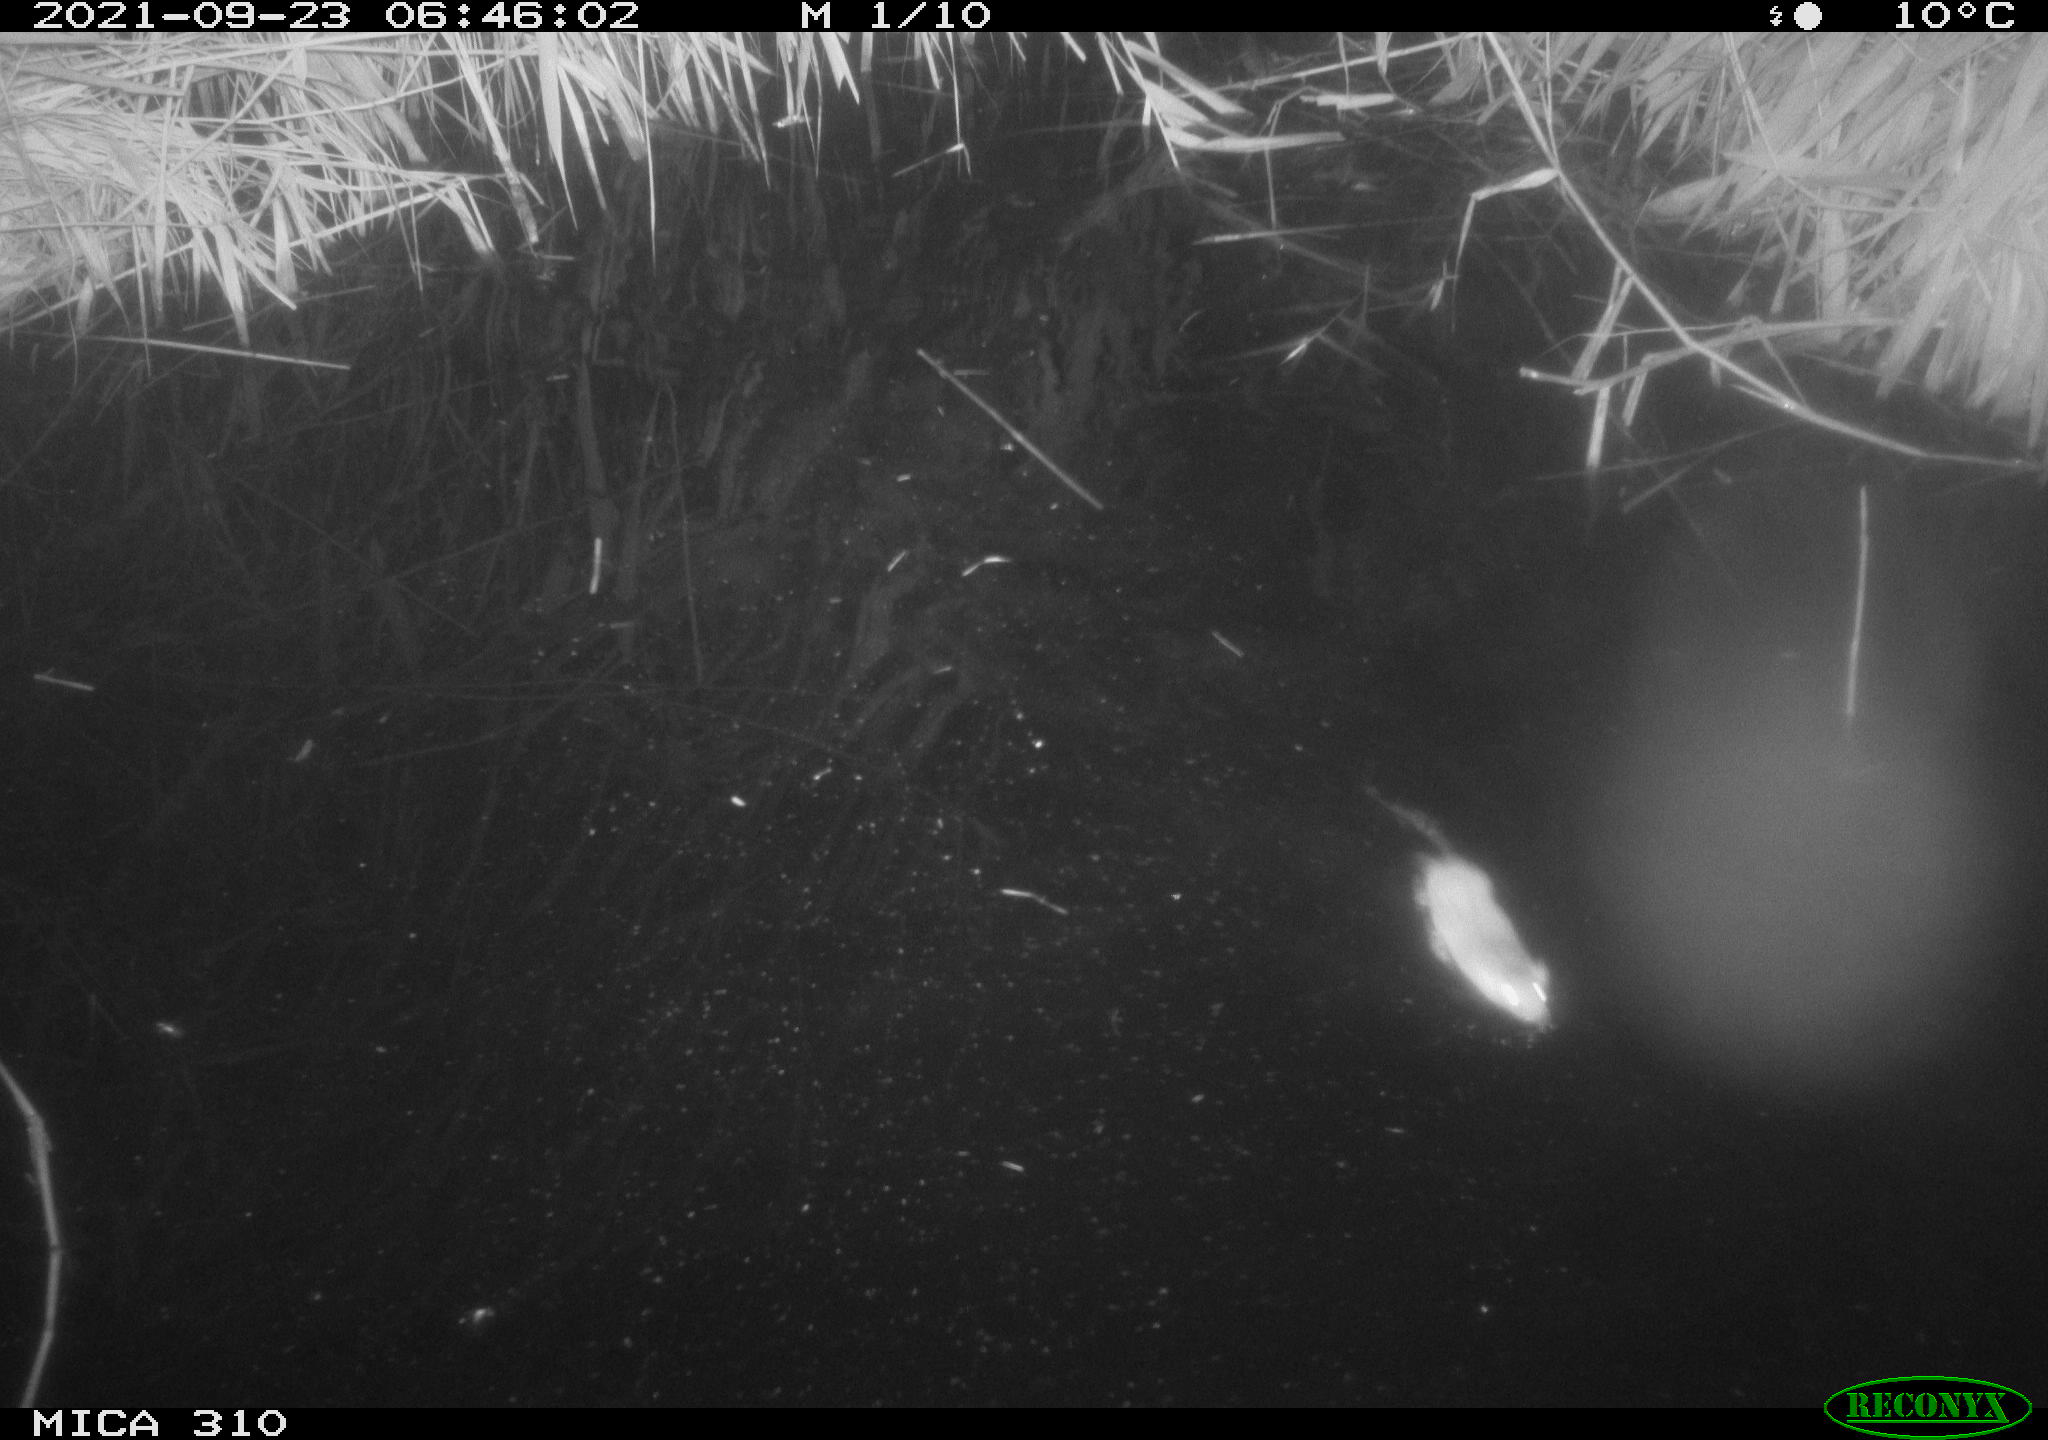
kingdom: Animalia
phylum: Chordata
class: Mammalia
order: Rodentia
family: Muridae
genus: Rattus
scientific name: Rattus norvegicus
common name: Brown rat
